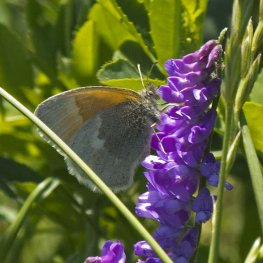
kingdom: Animalia
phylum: Arthropoda
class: Insecta
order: Lepidoptera
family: Nymphalidae
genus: Coenonympha
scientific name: Coenonympha tullia
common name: Large Heath
